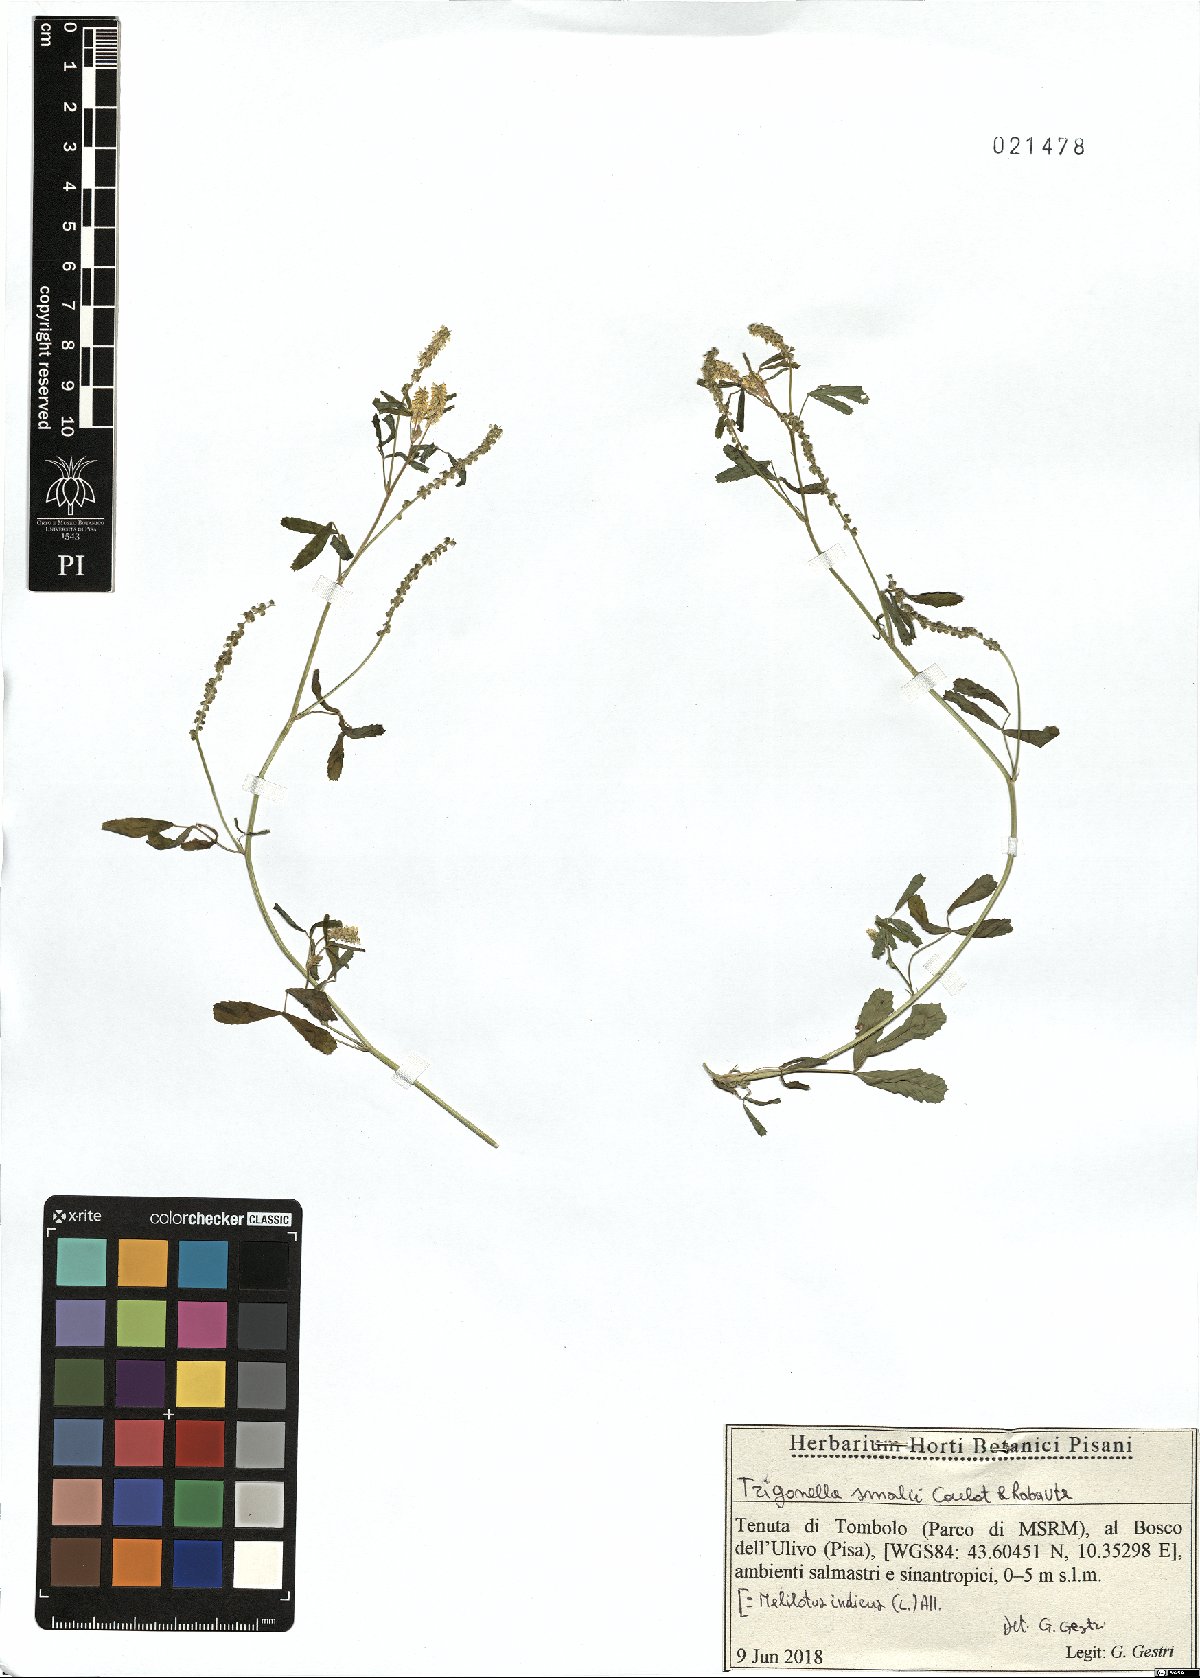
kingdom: Plantae
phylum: Tracheophyta
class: Magnoliopsida
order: Fabales
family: Fabaceae
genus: Melilotus
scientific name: Melilotus indicus
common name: Small melilot
